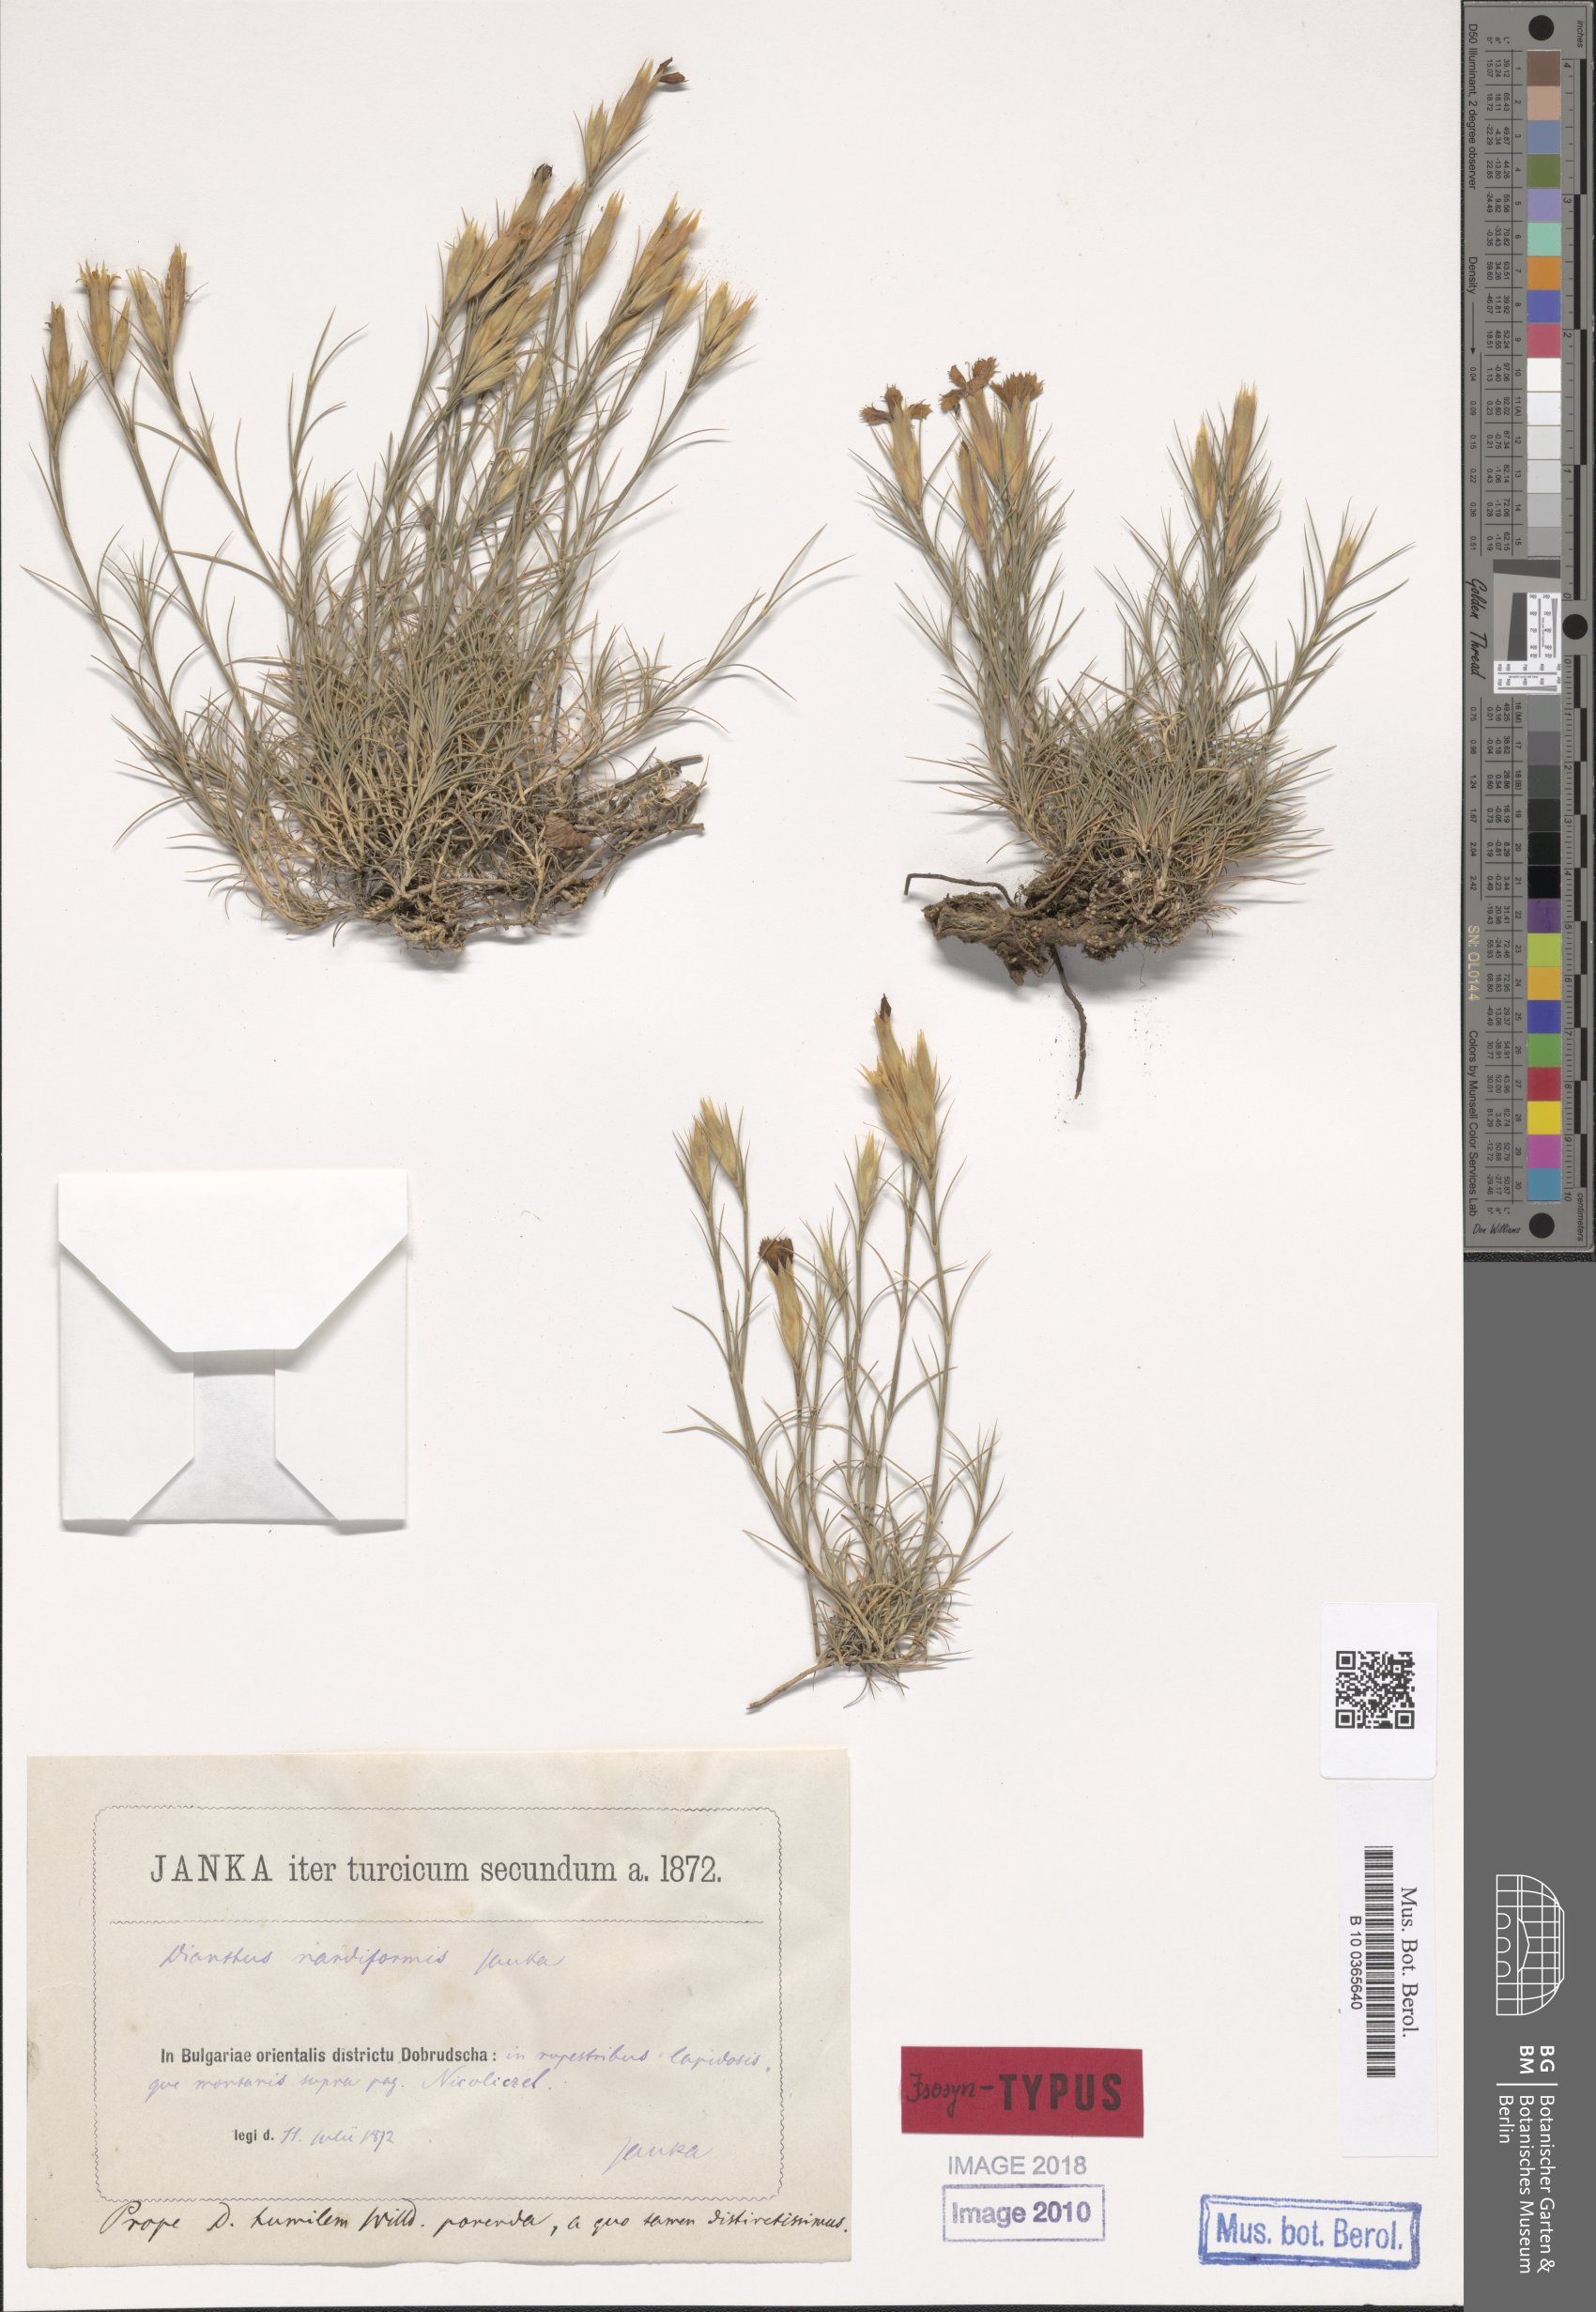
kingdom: Plantae
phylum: Tracheophyta
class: Magnoliopsida
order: Caryophyllales
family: Caryophyllaceae
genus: Dianthus
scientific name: Dianthus nardiformis
